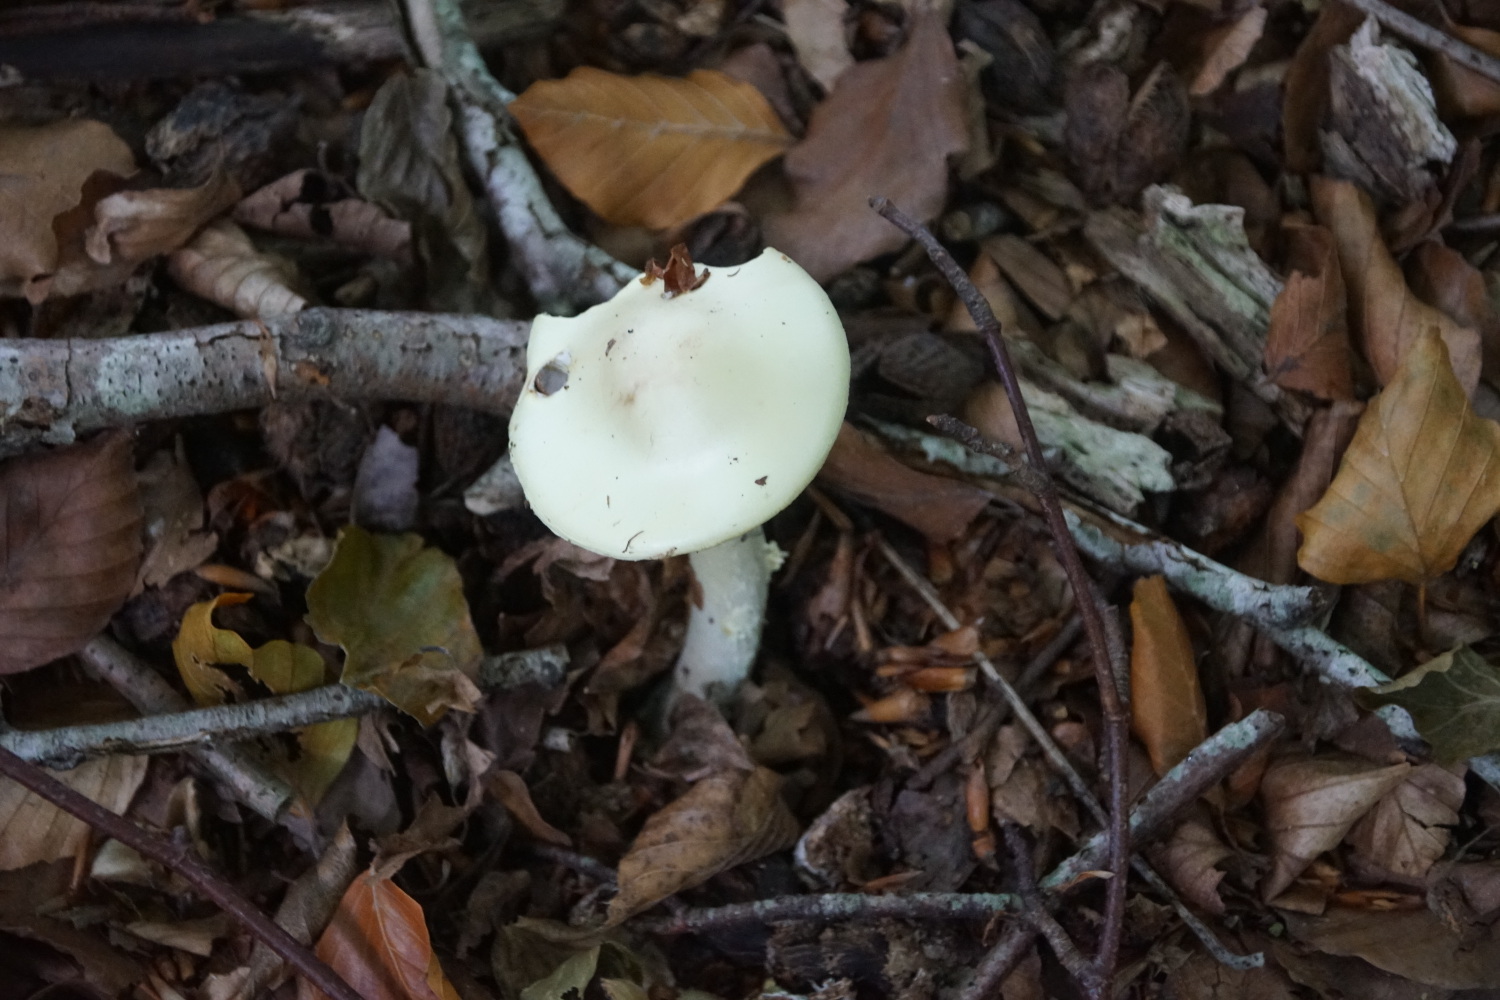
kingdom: Fungi
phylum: Basidiomycota
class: Agaricomycetes
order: Agaricales
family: Amanitaceae
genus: Amanita
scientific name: Amanita citrina
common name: kugleknoldet fluesvamp
